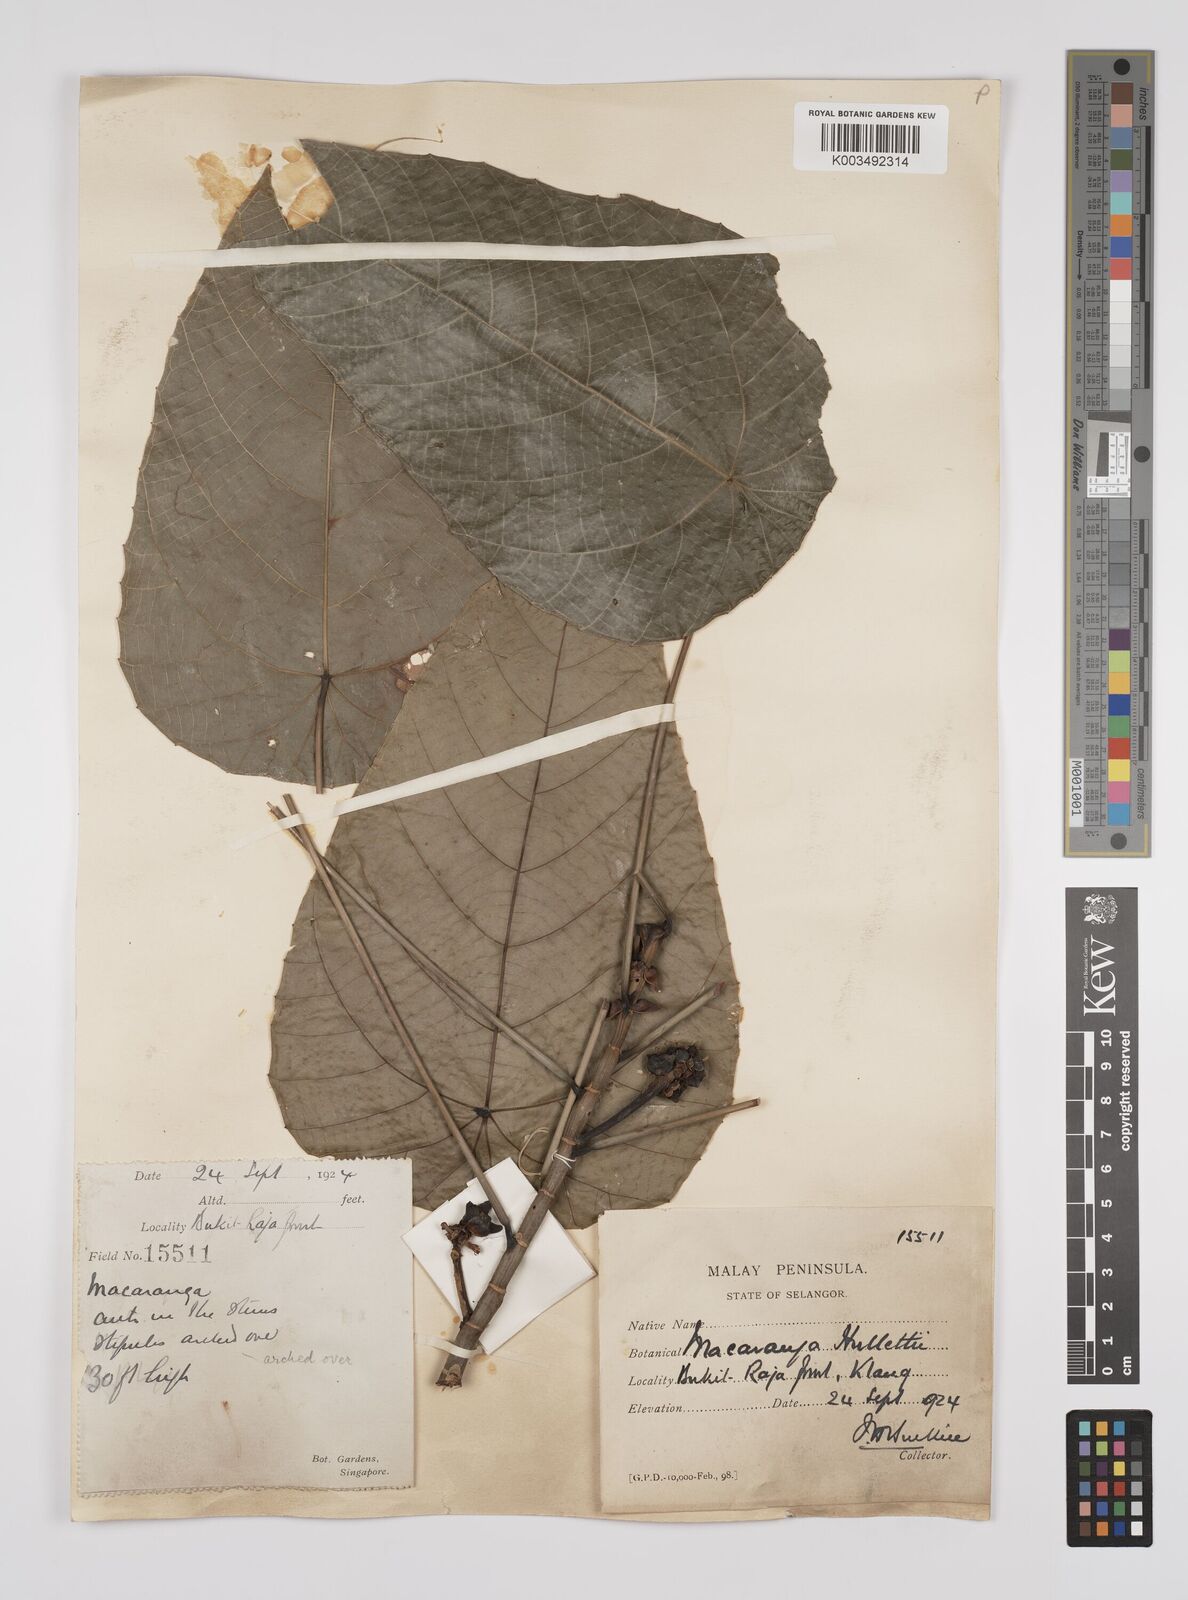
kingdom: Plantae
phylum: Tracheophyta
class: Magnoliopsida
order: Malpighiales
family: Euphorbiaceae
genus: Macaranga
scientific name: Macaranga hullettii
